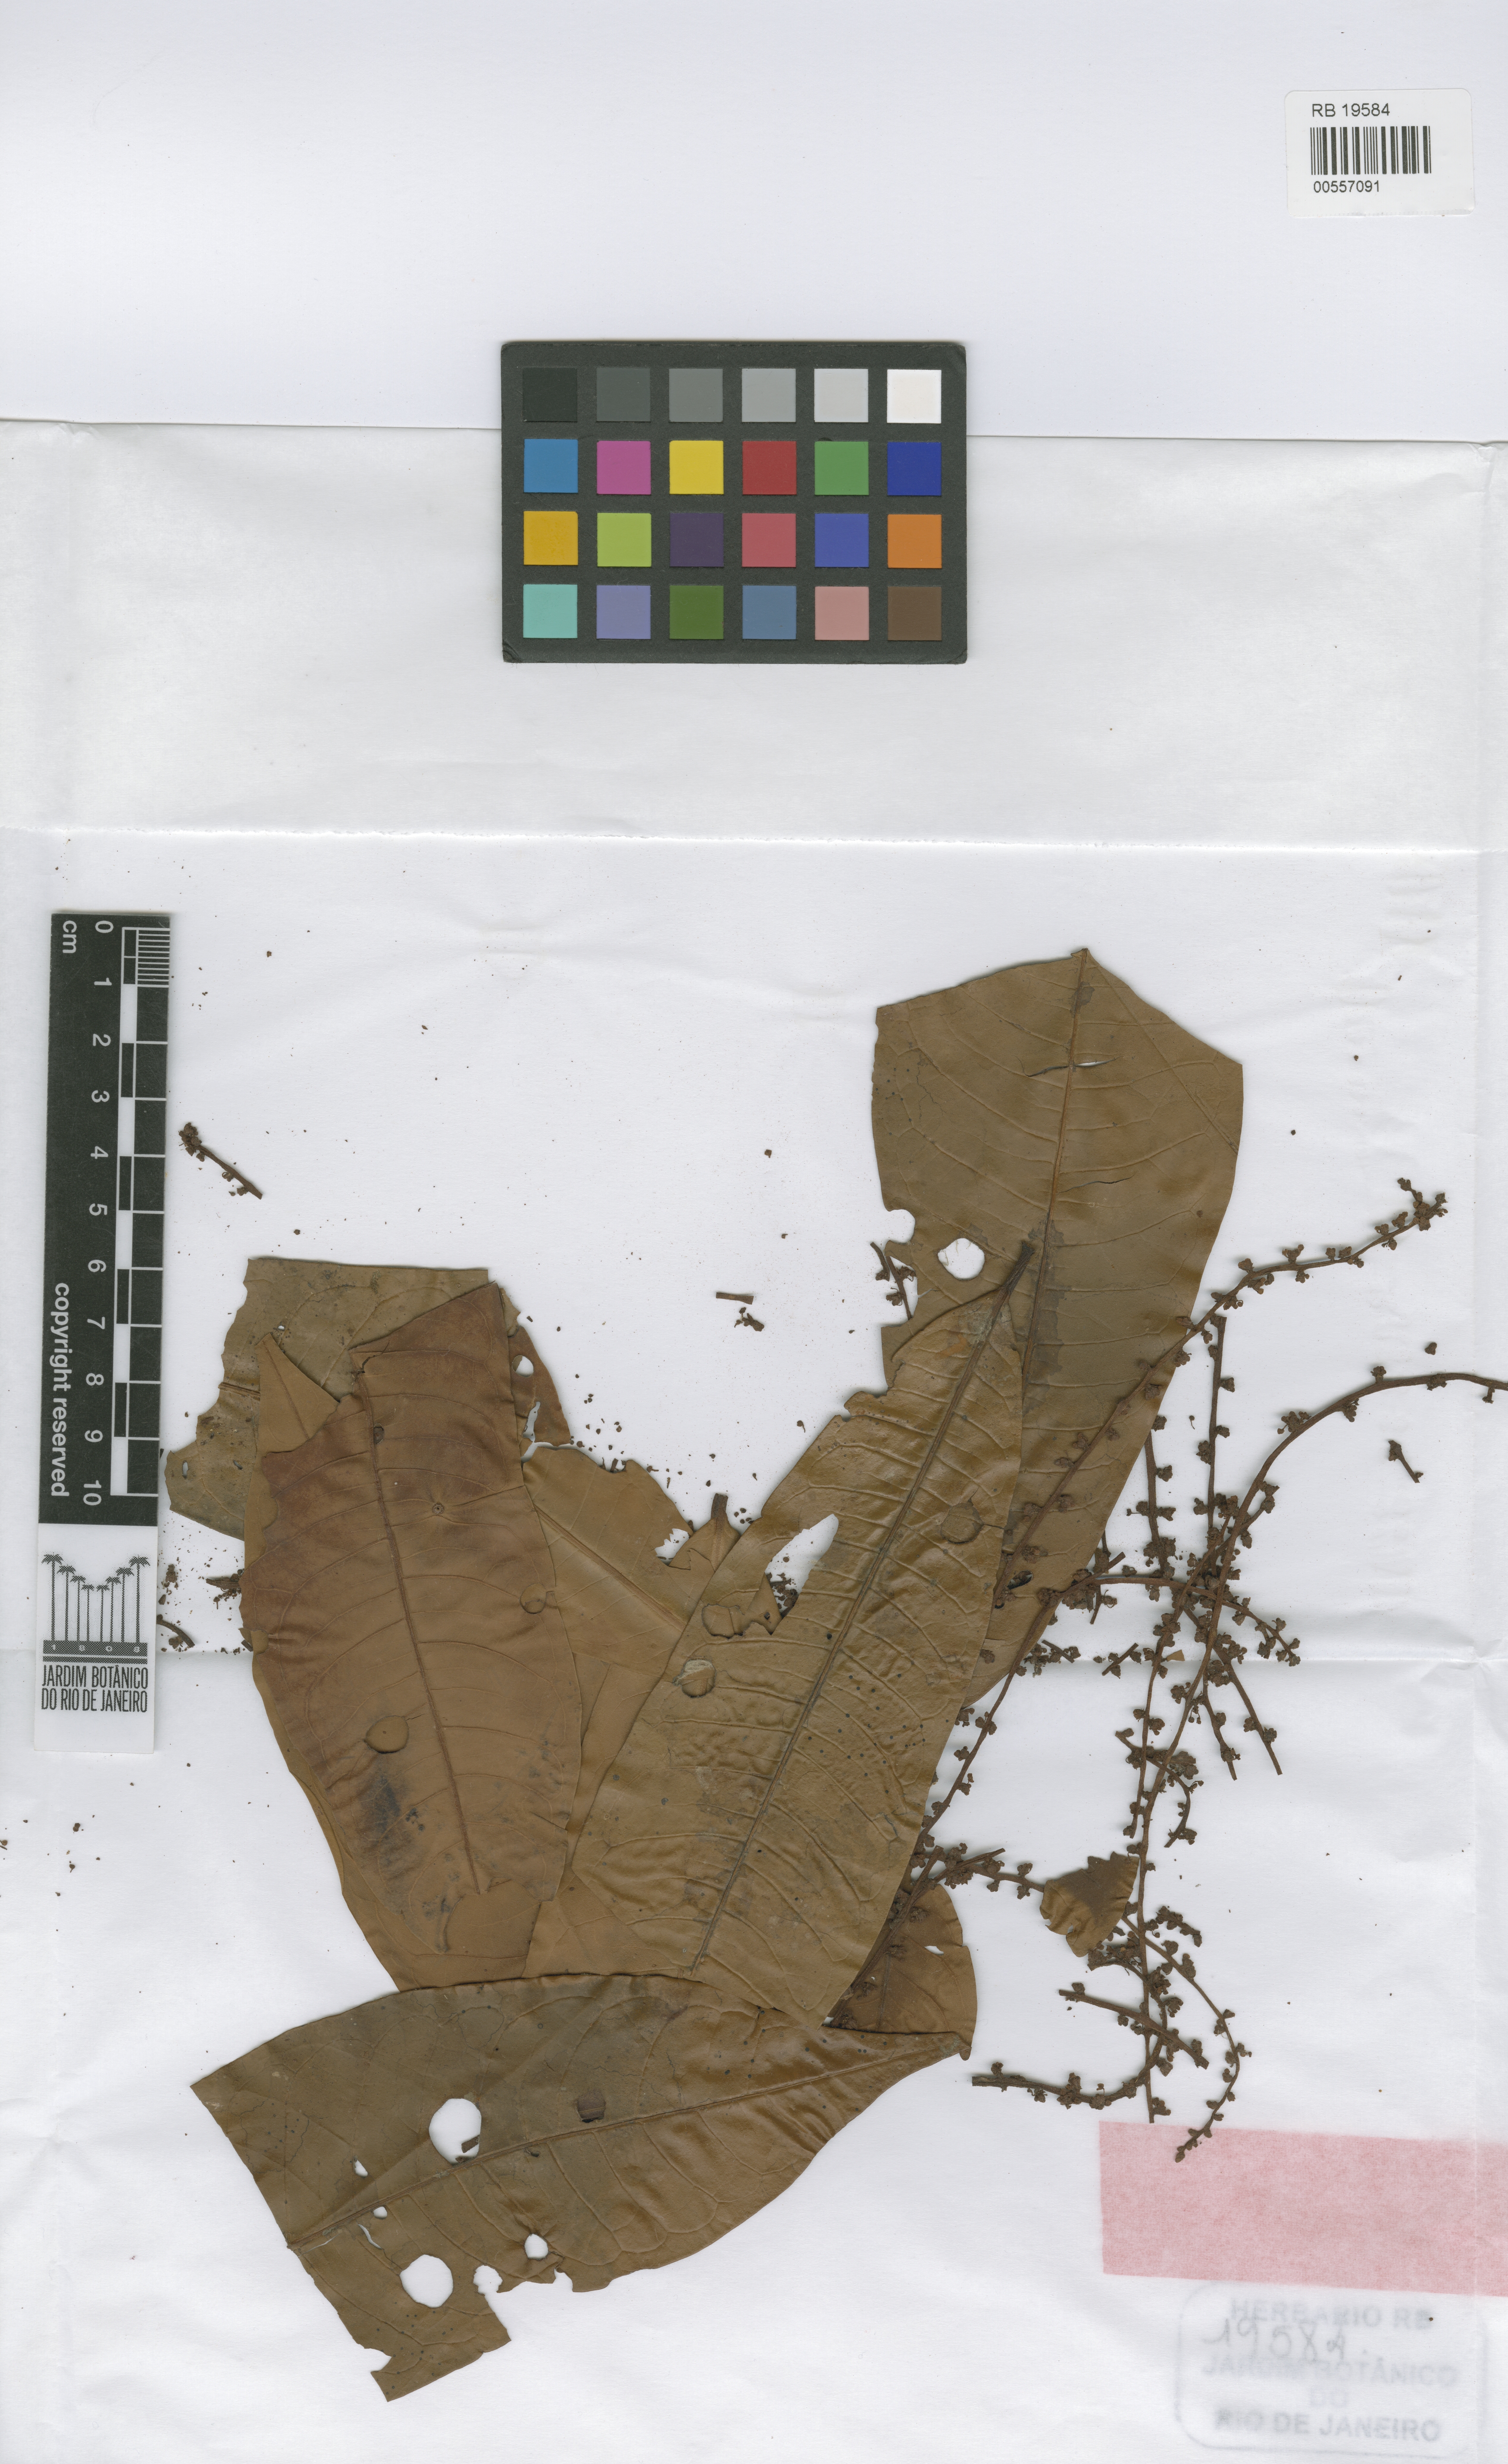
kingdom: Plantae
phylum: Tracheophyta
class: Magnoliopsida
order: Magnoliales
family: Myristicaceae
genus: Iryanthera
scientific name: Iryanthera paraensis
